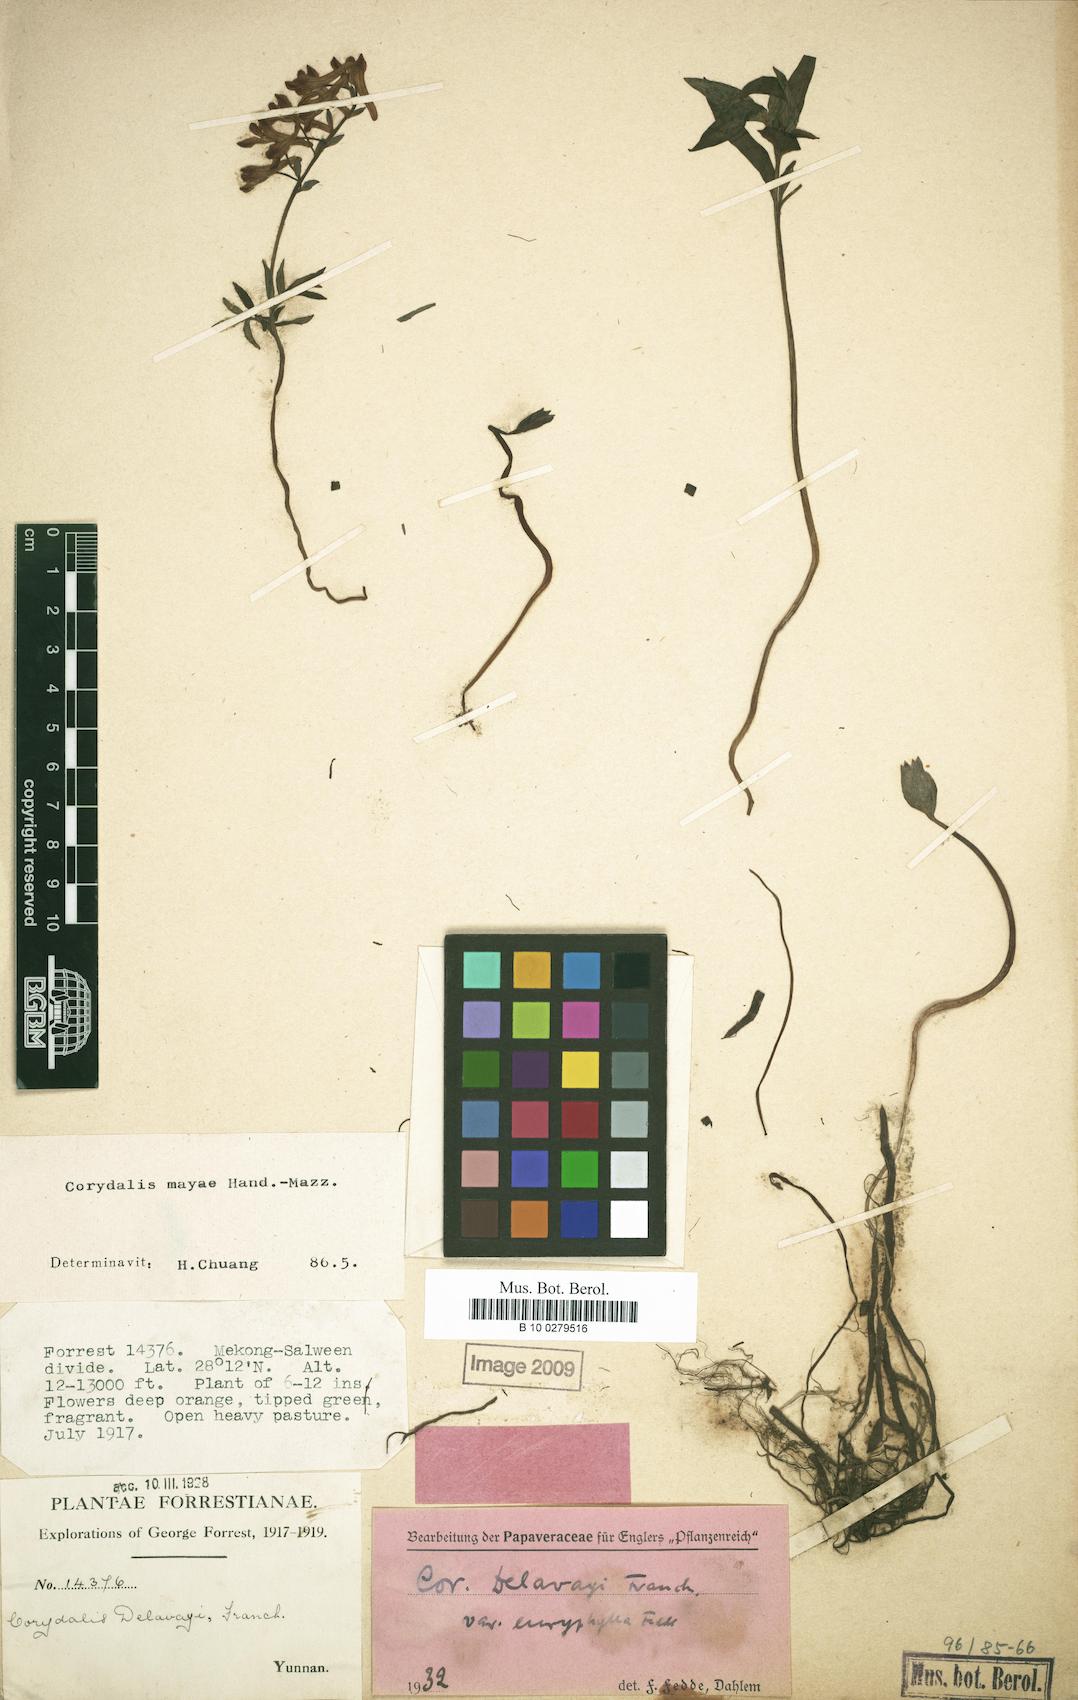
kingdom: Plantae
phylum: Tracheophyta
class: Magnoliopsida
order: Ranunculales
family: Papaveraceae
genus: Corydalis
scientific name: Corydalis mayae
